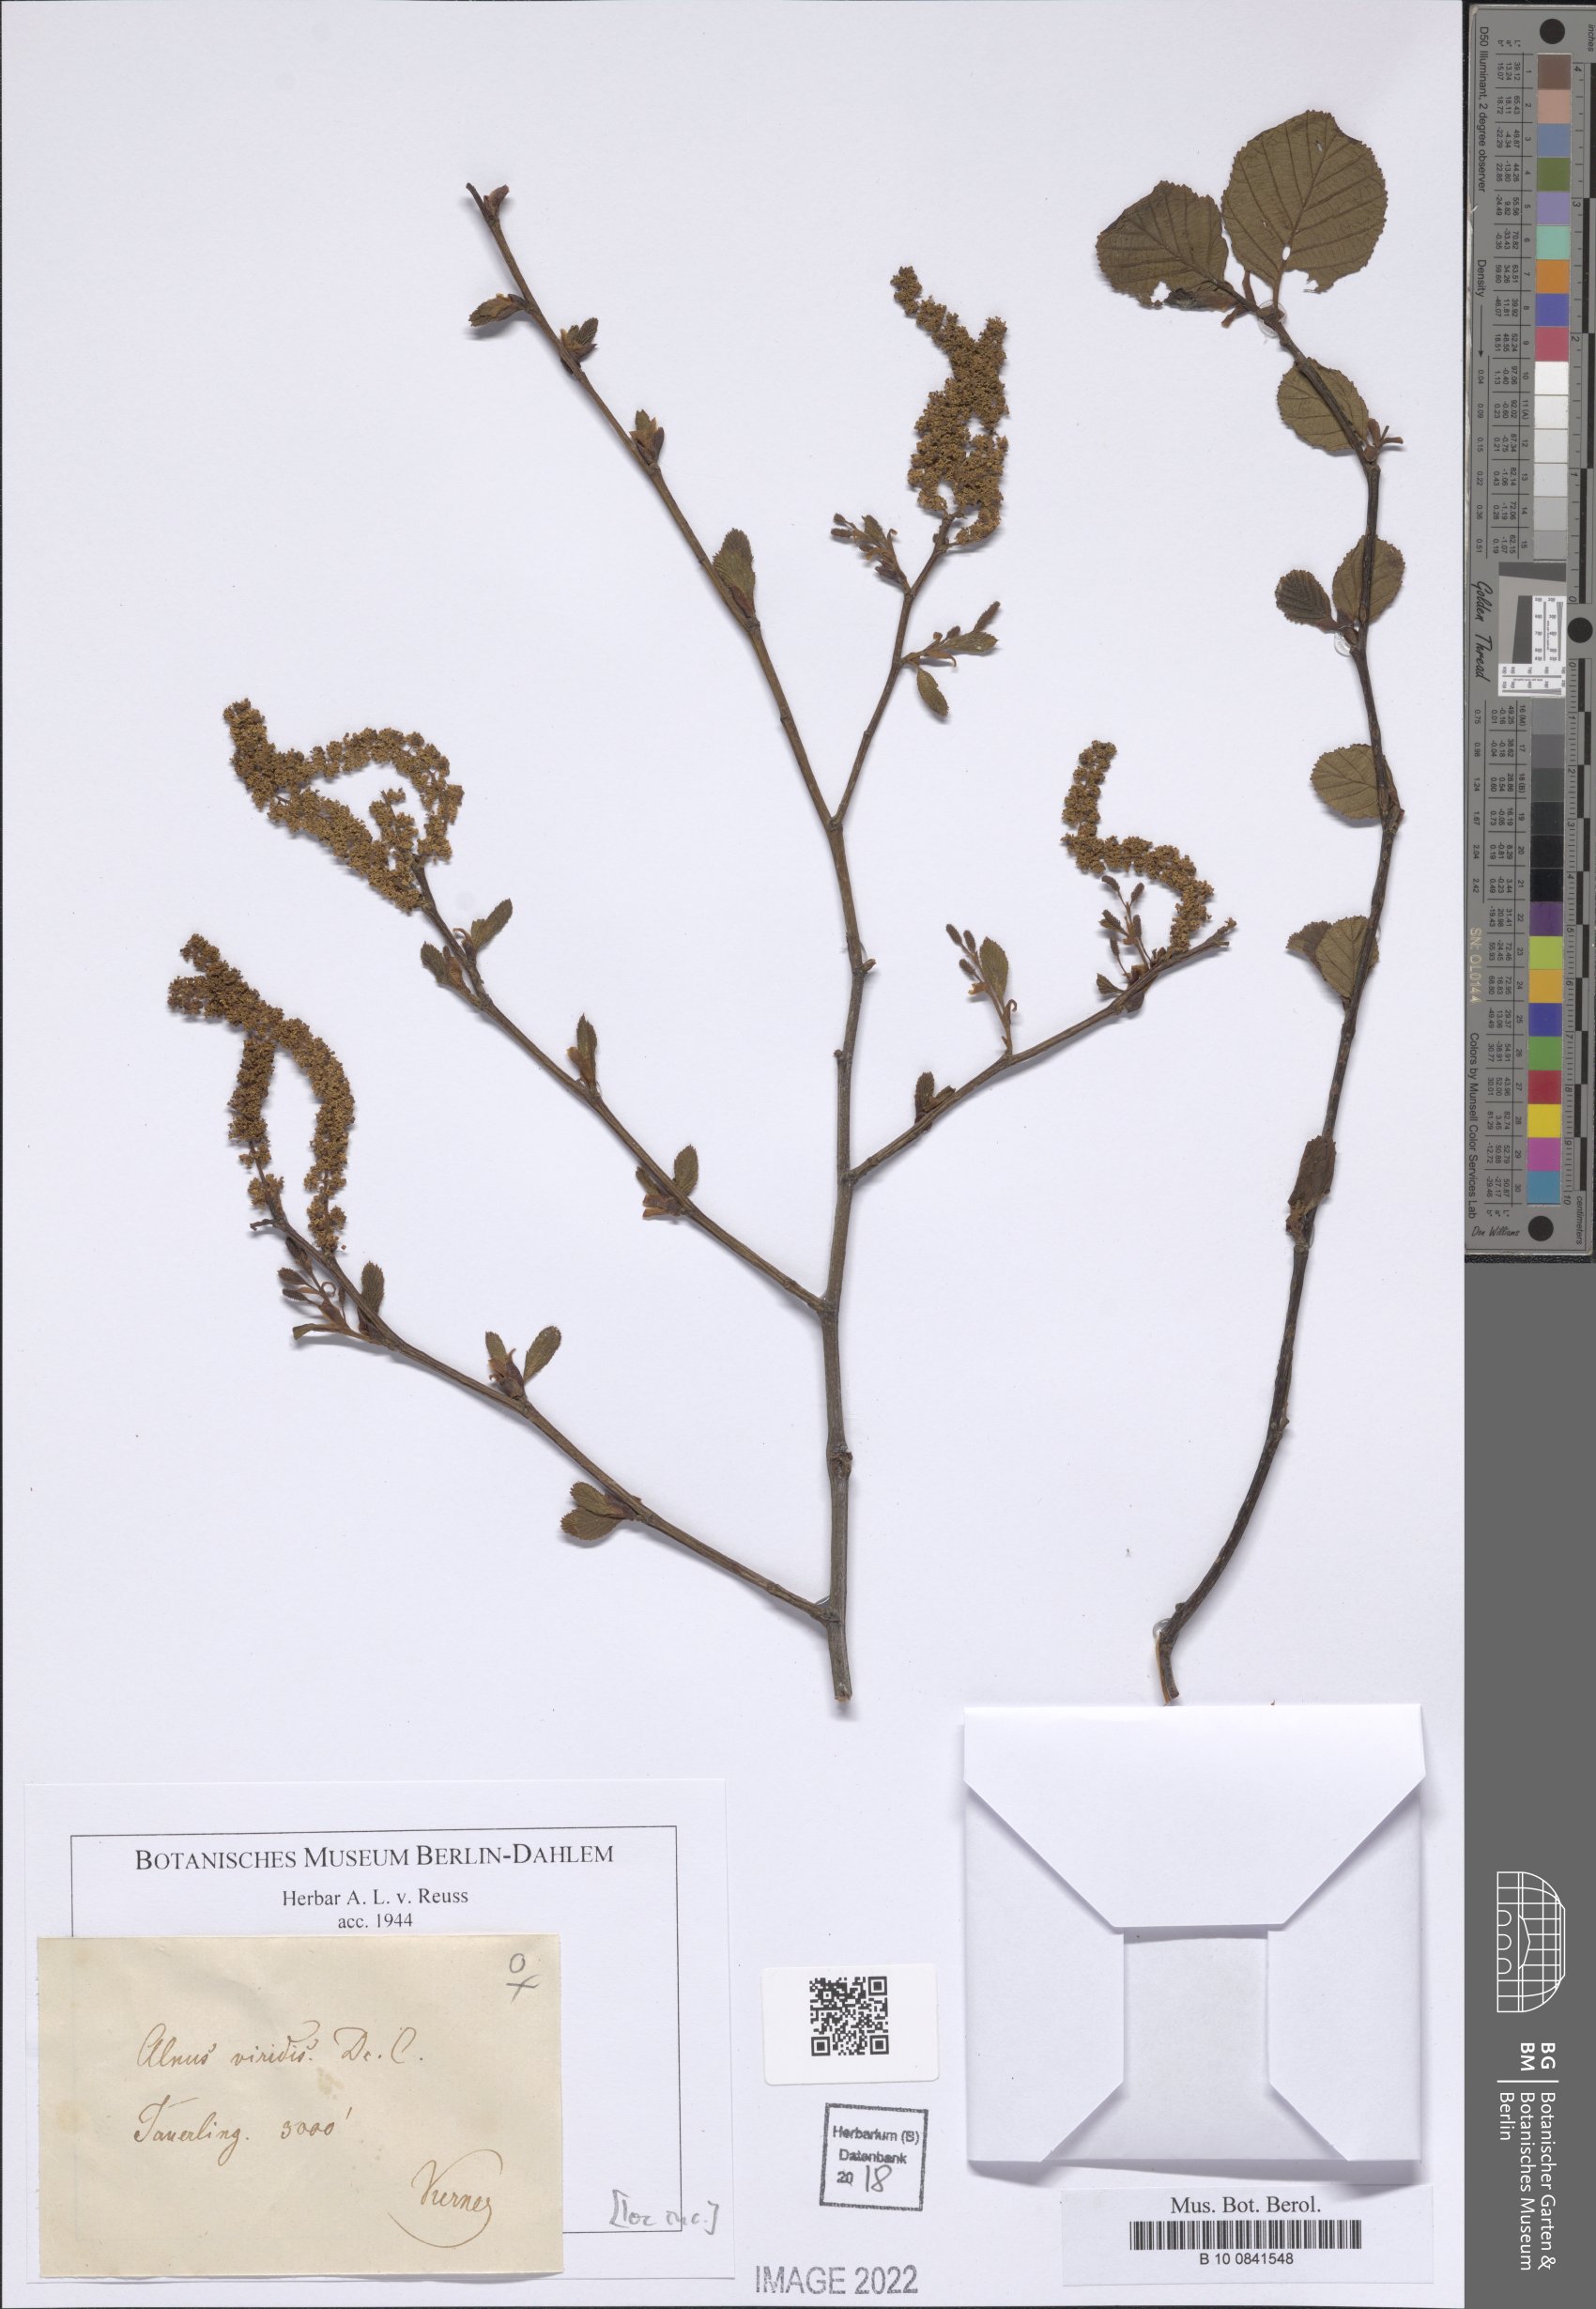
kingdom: Plantae
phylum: Tracheophyta
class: Magnoliopsida
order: Fagales
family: Betulaceae
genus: Alnus
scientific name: Alnus alnobetula
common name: Green alder
